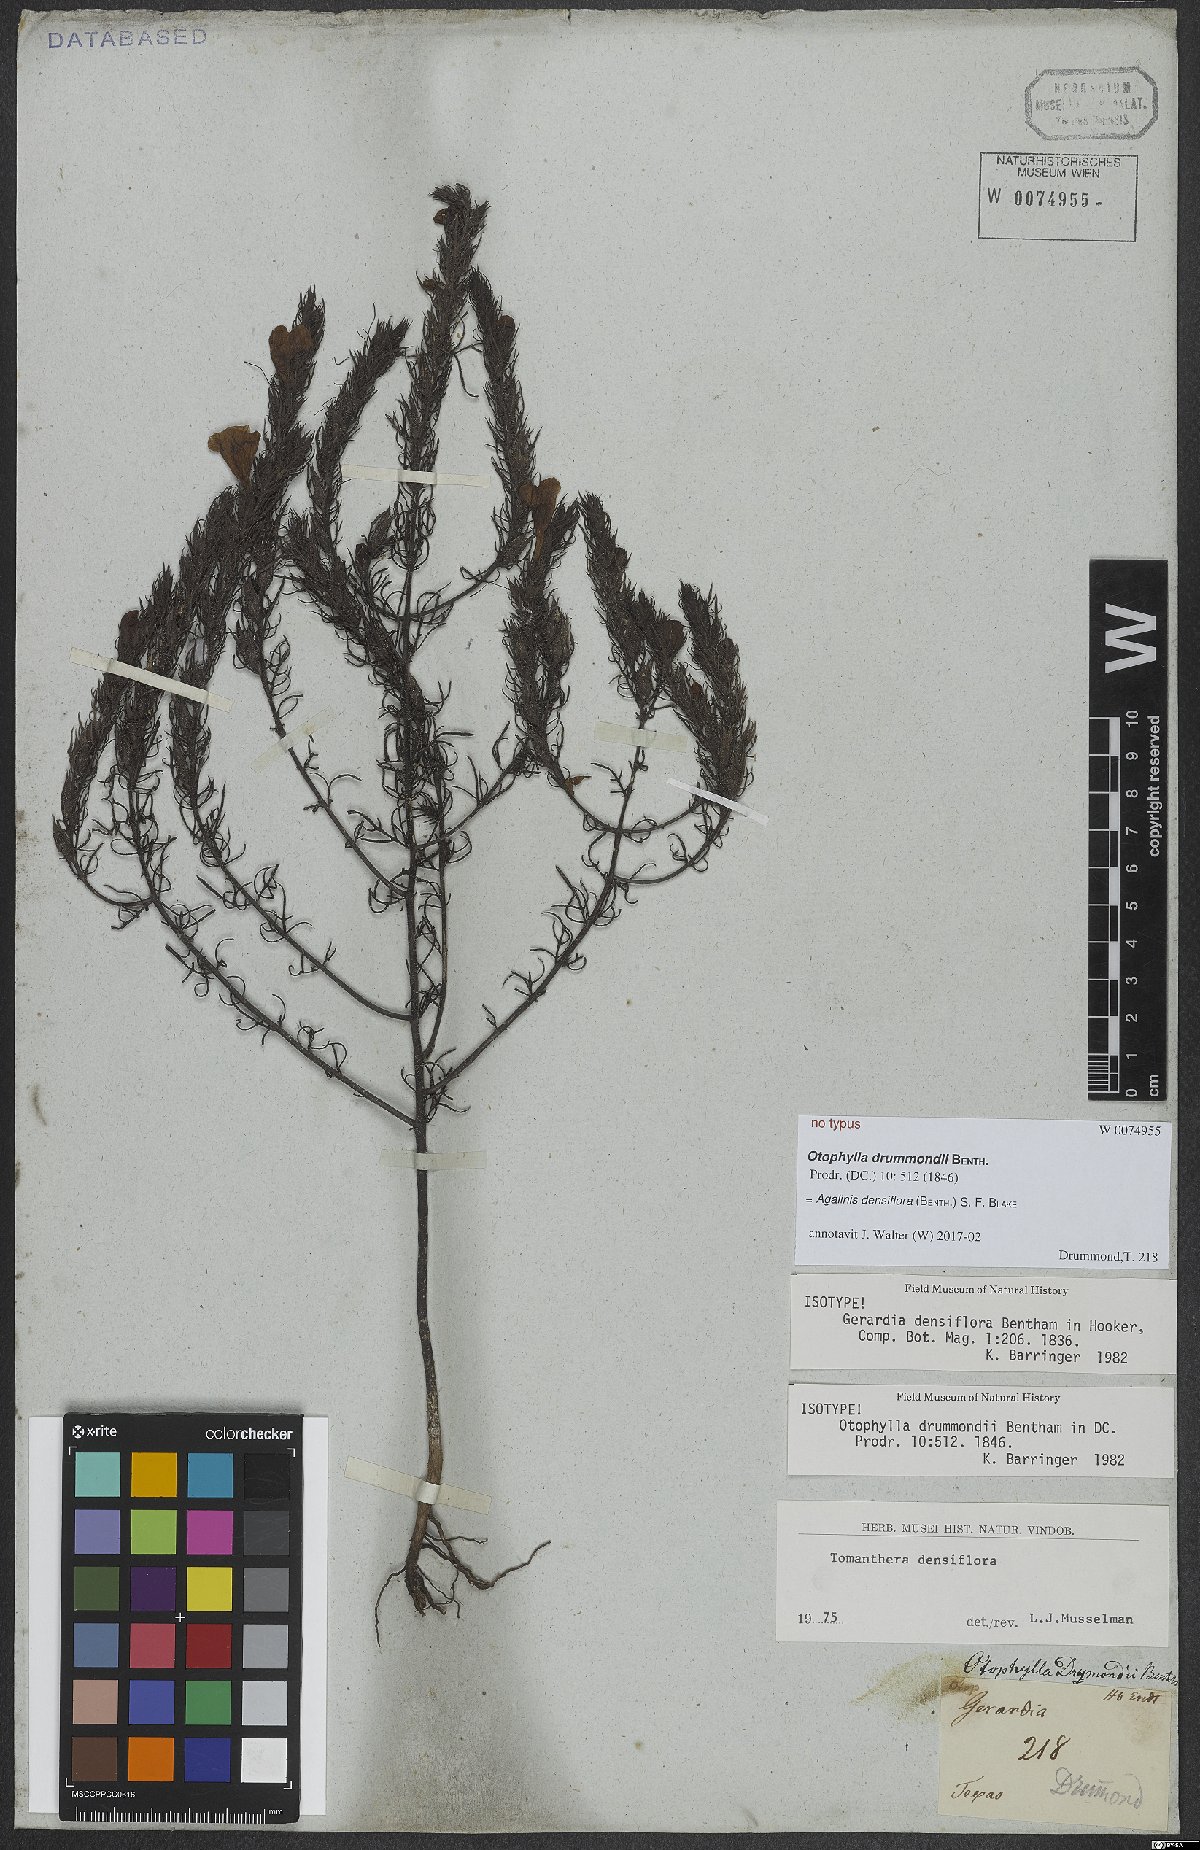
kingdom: Plantae
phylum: Tracheophyta
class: Magnoliopsida
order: Lamiales
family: Orobanchaceae
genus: Agalinis
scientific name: Agalinis densiflora
